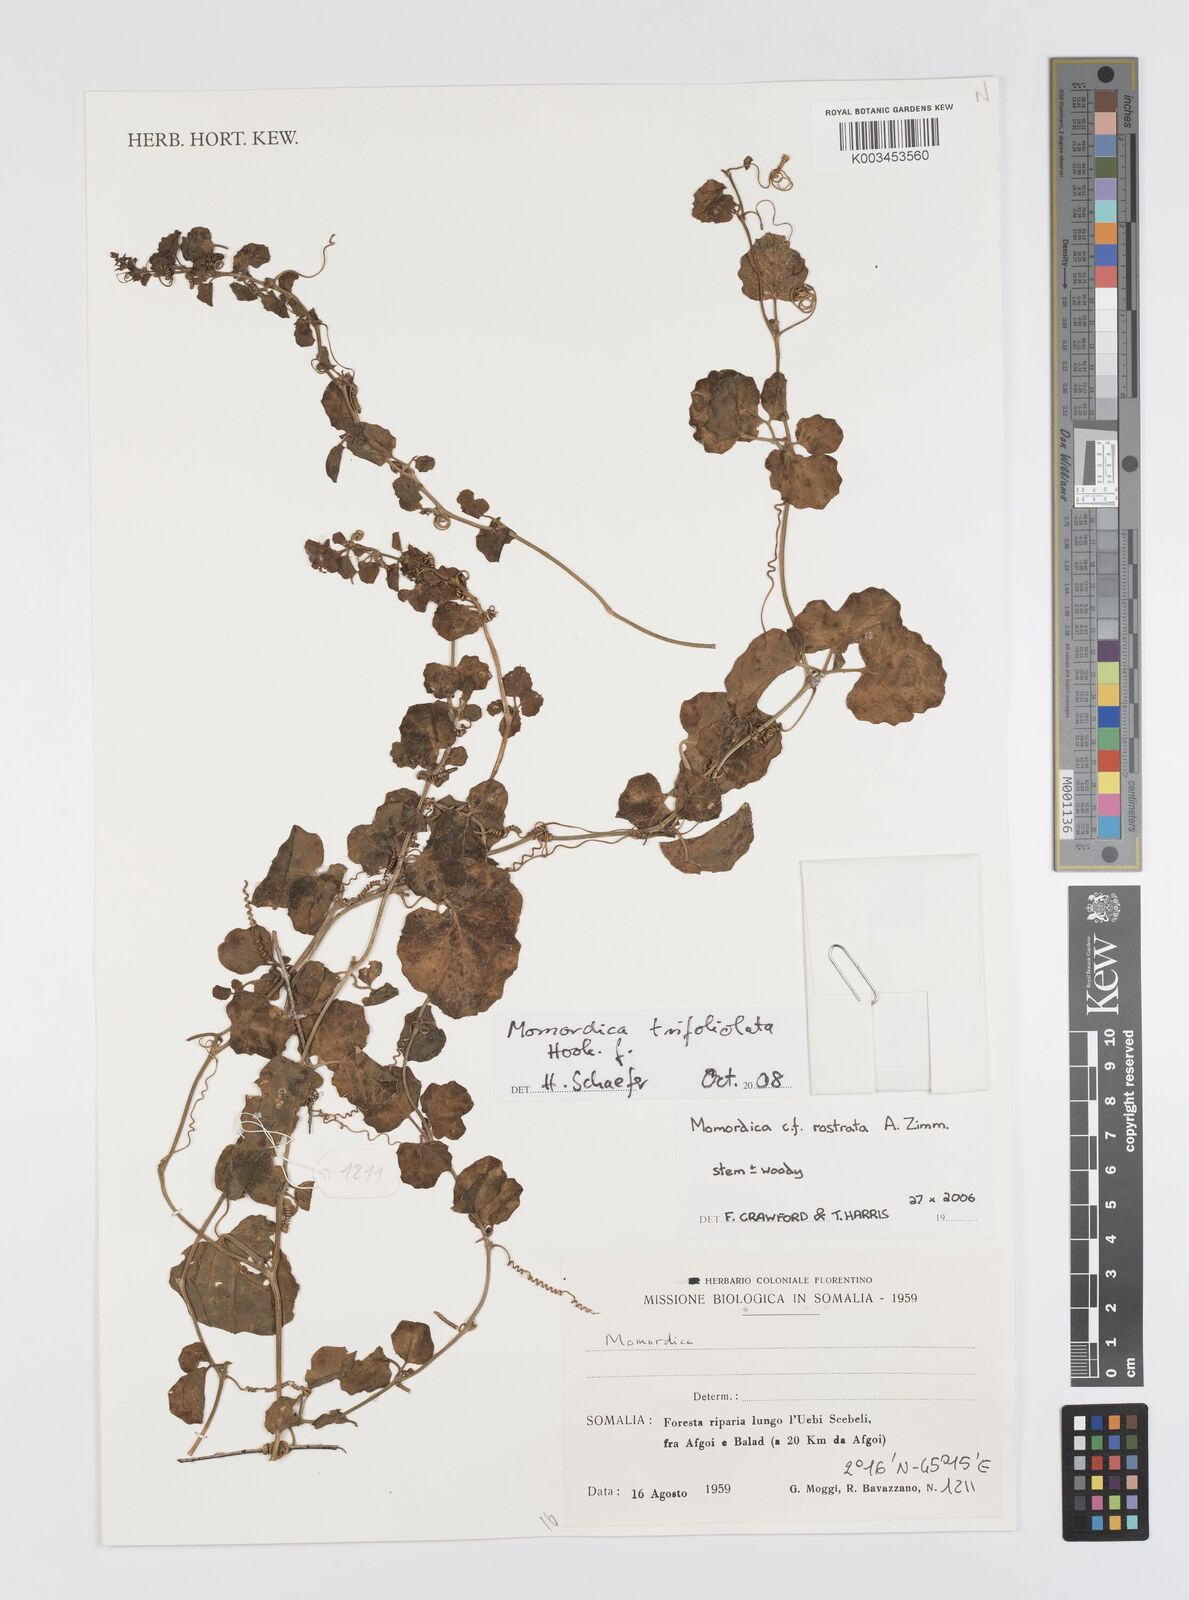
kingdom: Plantae
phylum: Tracheophyta
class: Magnoliopsida
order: Cucurbitales
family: Cucurbitaceae
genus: Momordica
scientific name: Momordica trifoliolata
